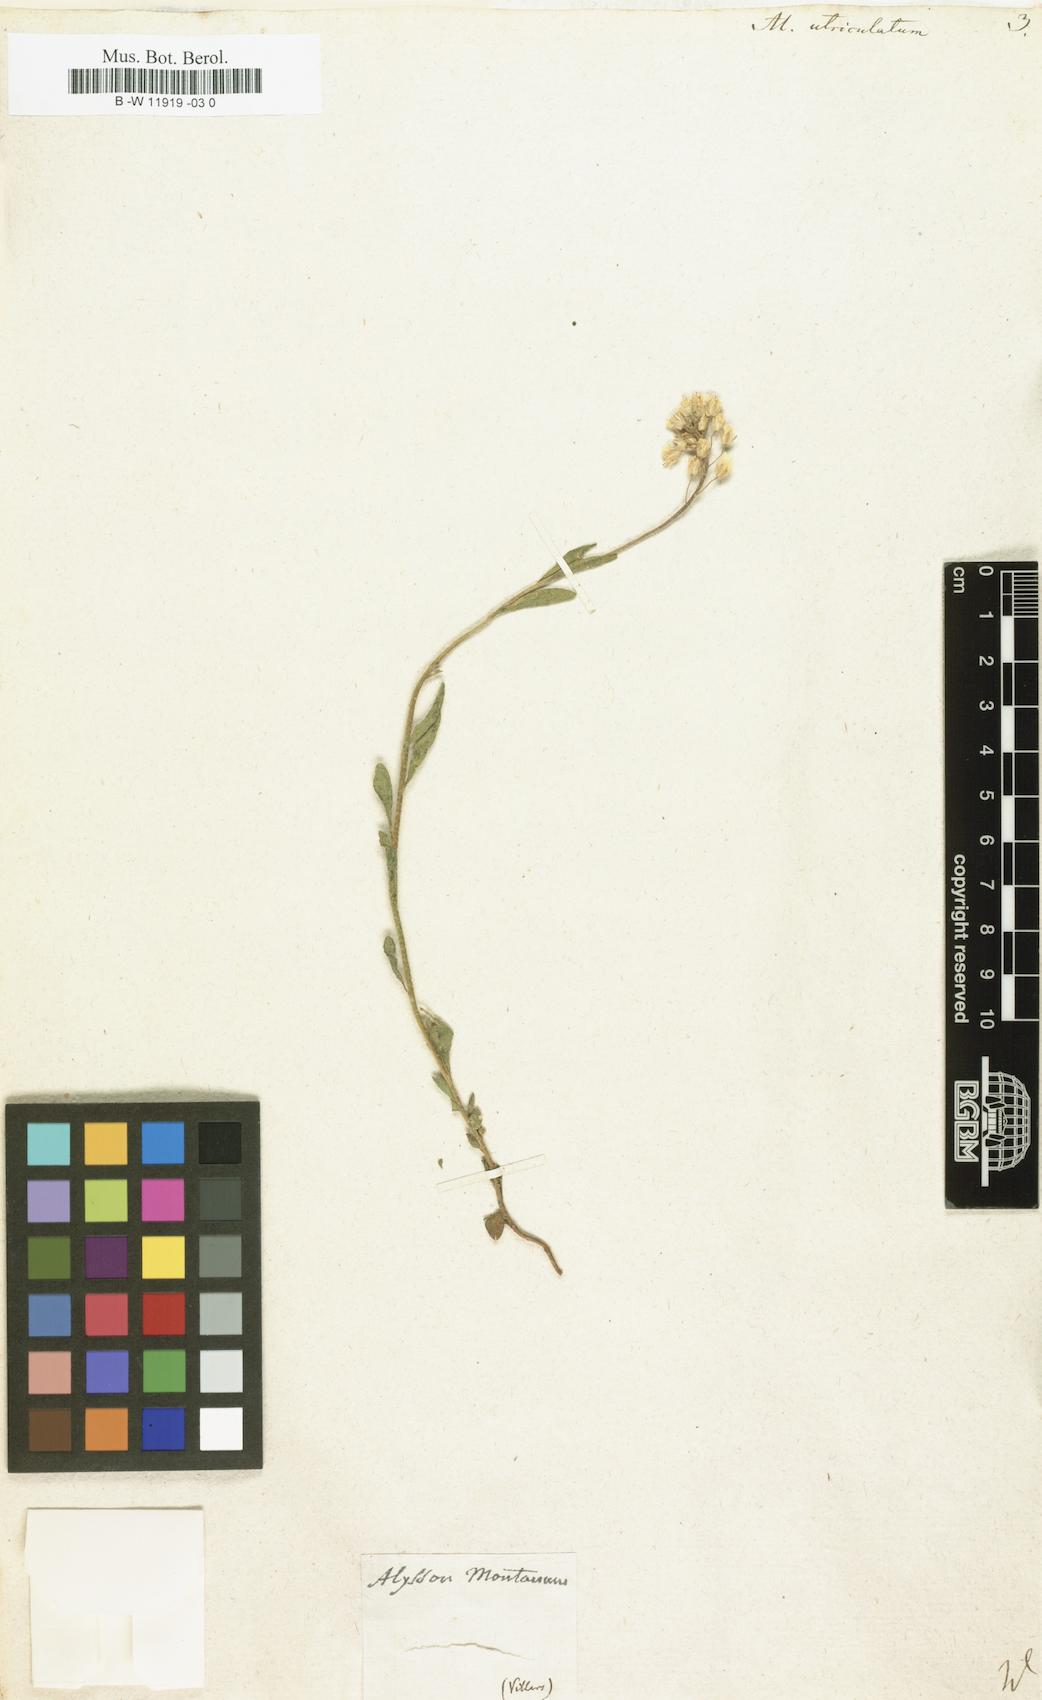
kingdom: Plantae
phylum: Tracheophyta
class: Magnoliopsida
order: Brassicales
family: Brassicaceae
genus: Alyssoides
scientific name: Alyssoides utriculata
